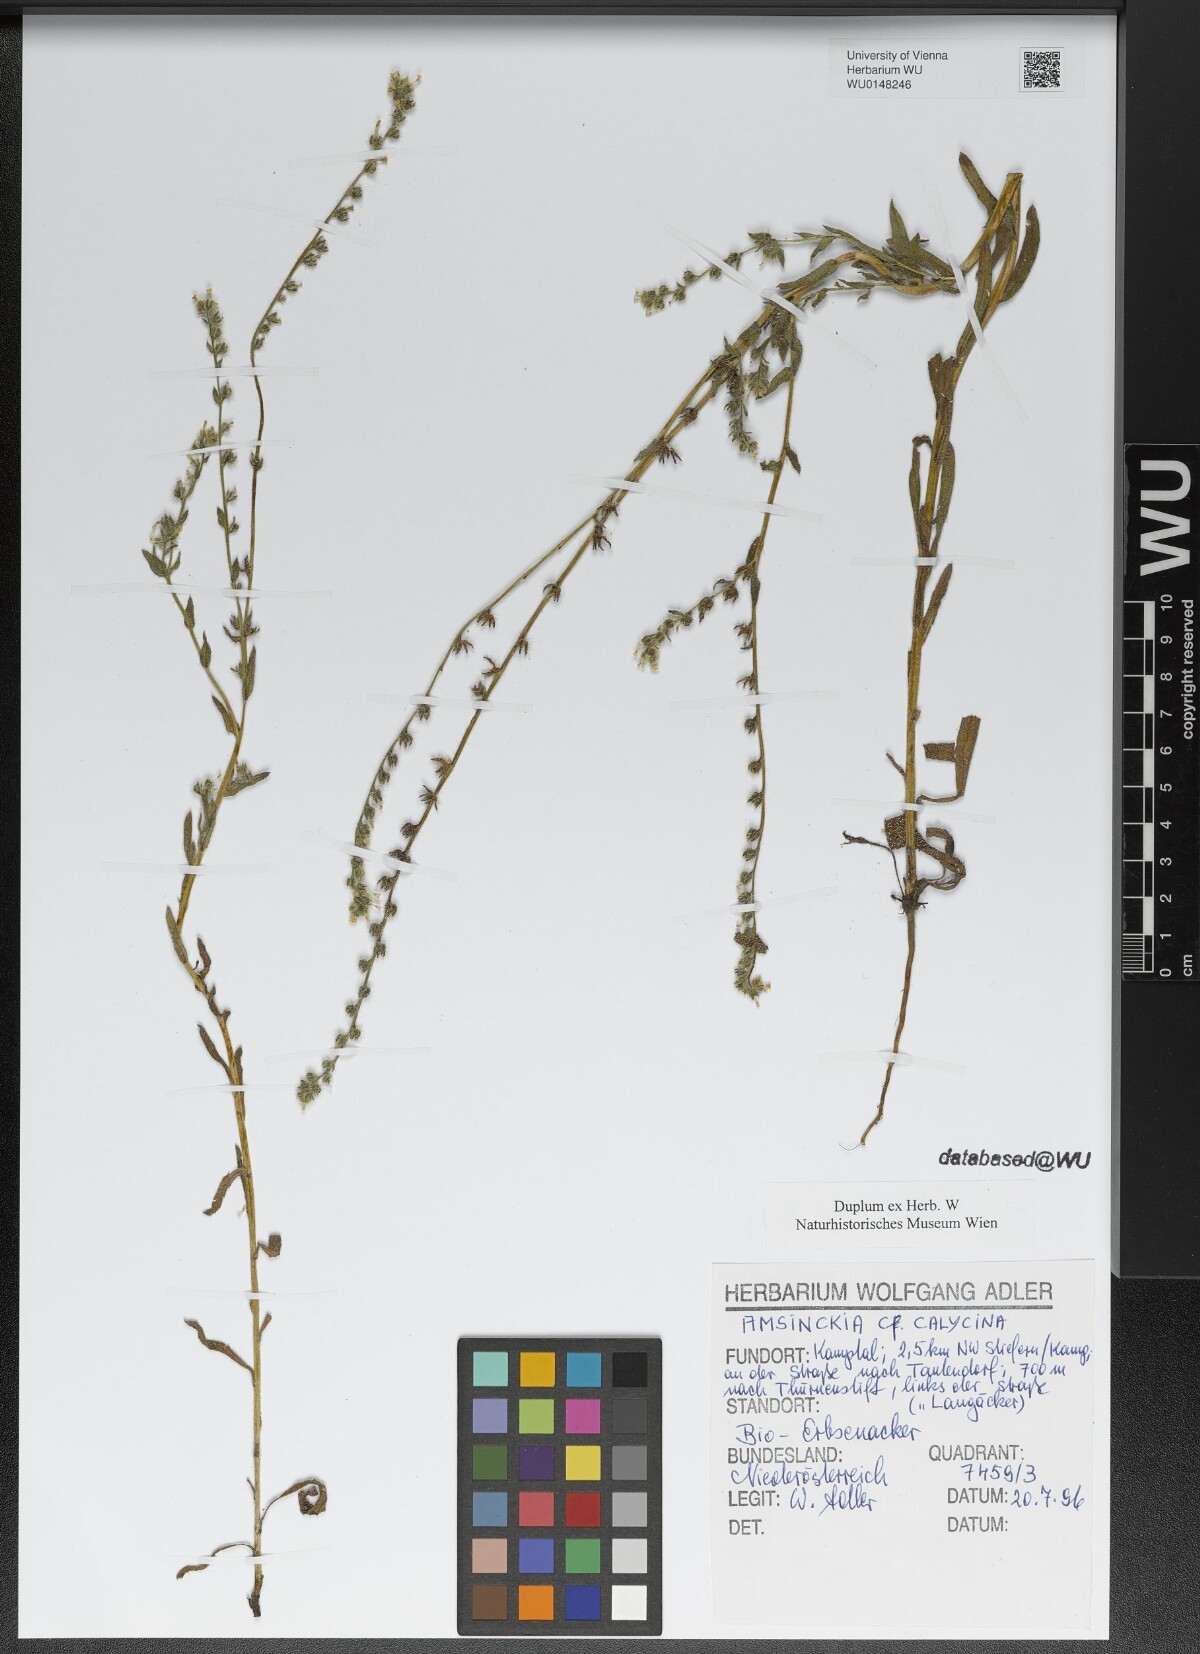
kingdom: Plantae
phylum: Tracheophyta
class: Magnoliopsida
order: Boraginales
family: Boraginaceae
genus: Amsinckia
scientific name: Amsinckia calycina
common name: Hairy fiddleneck
